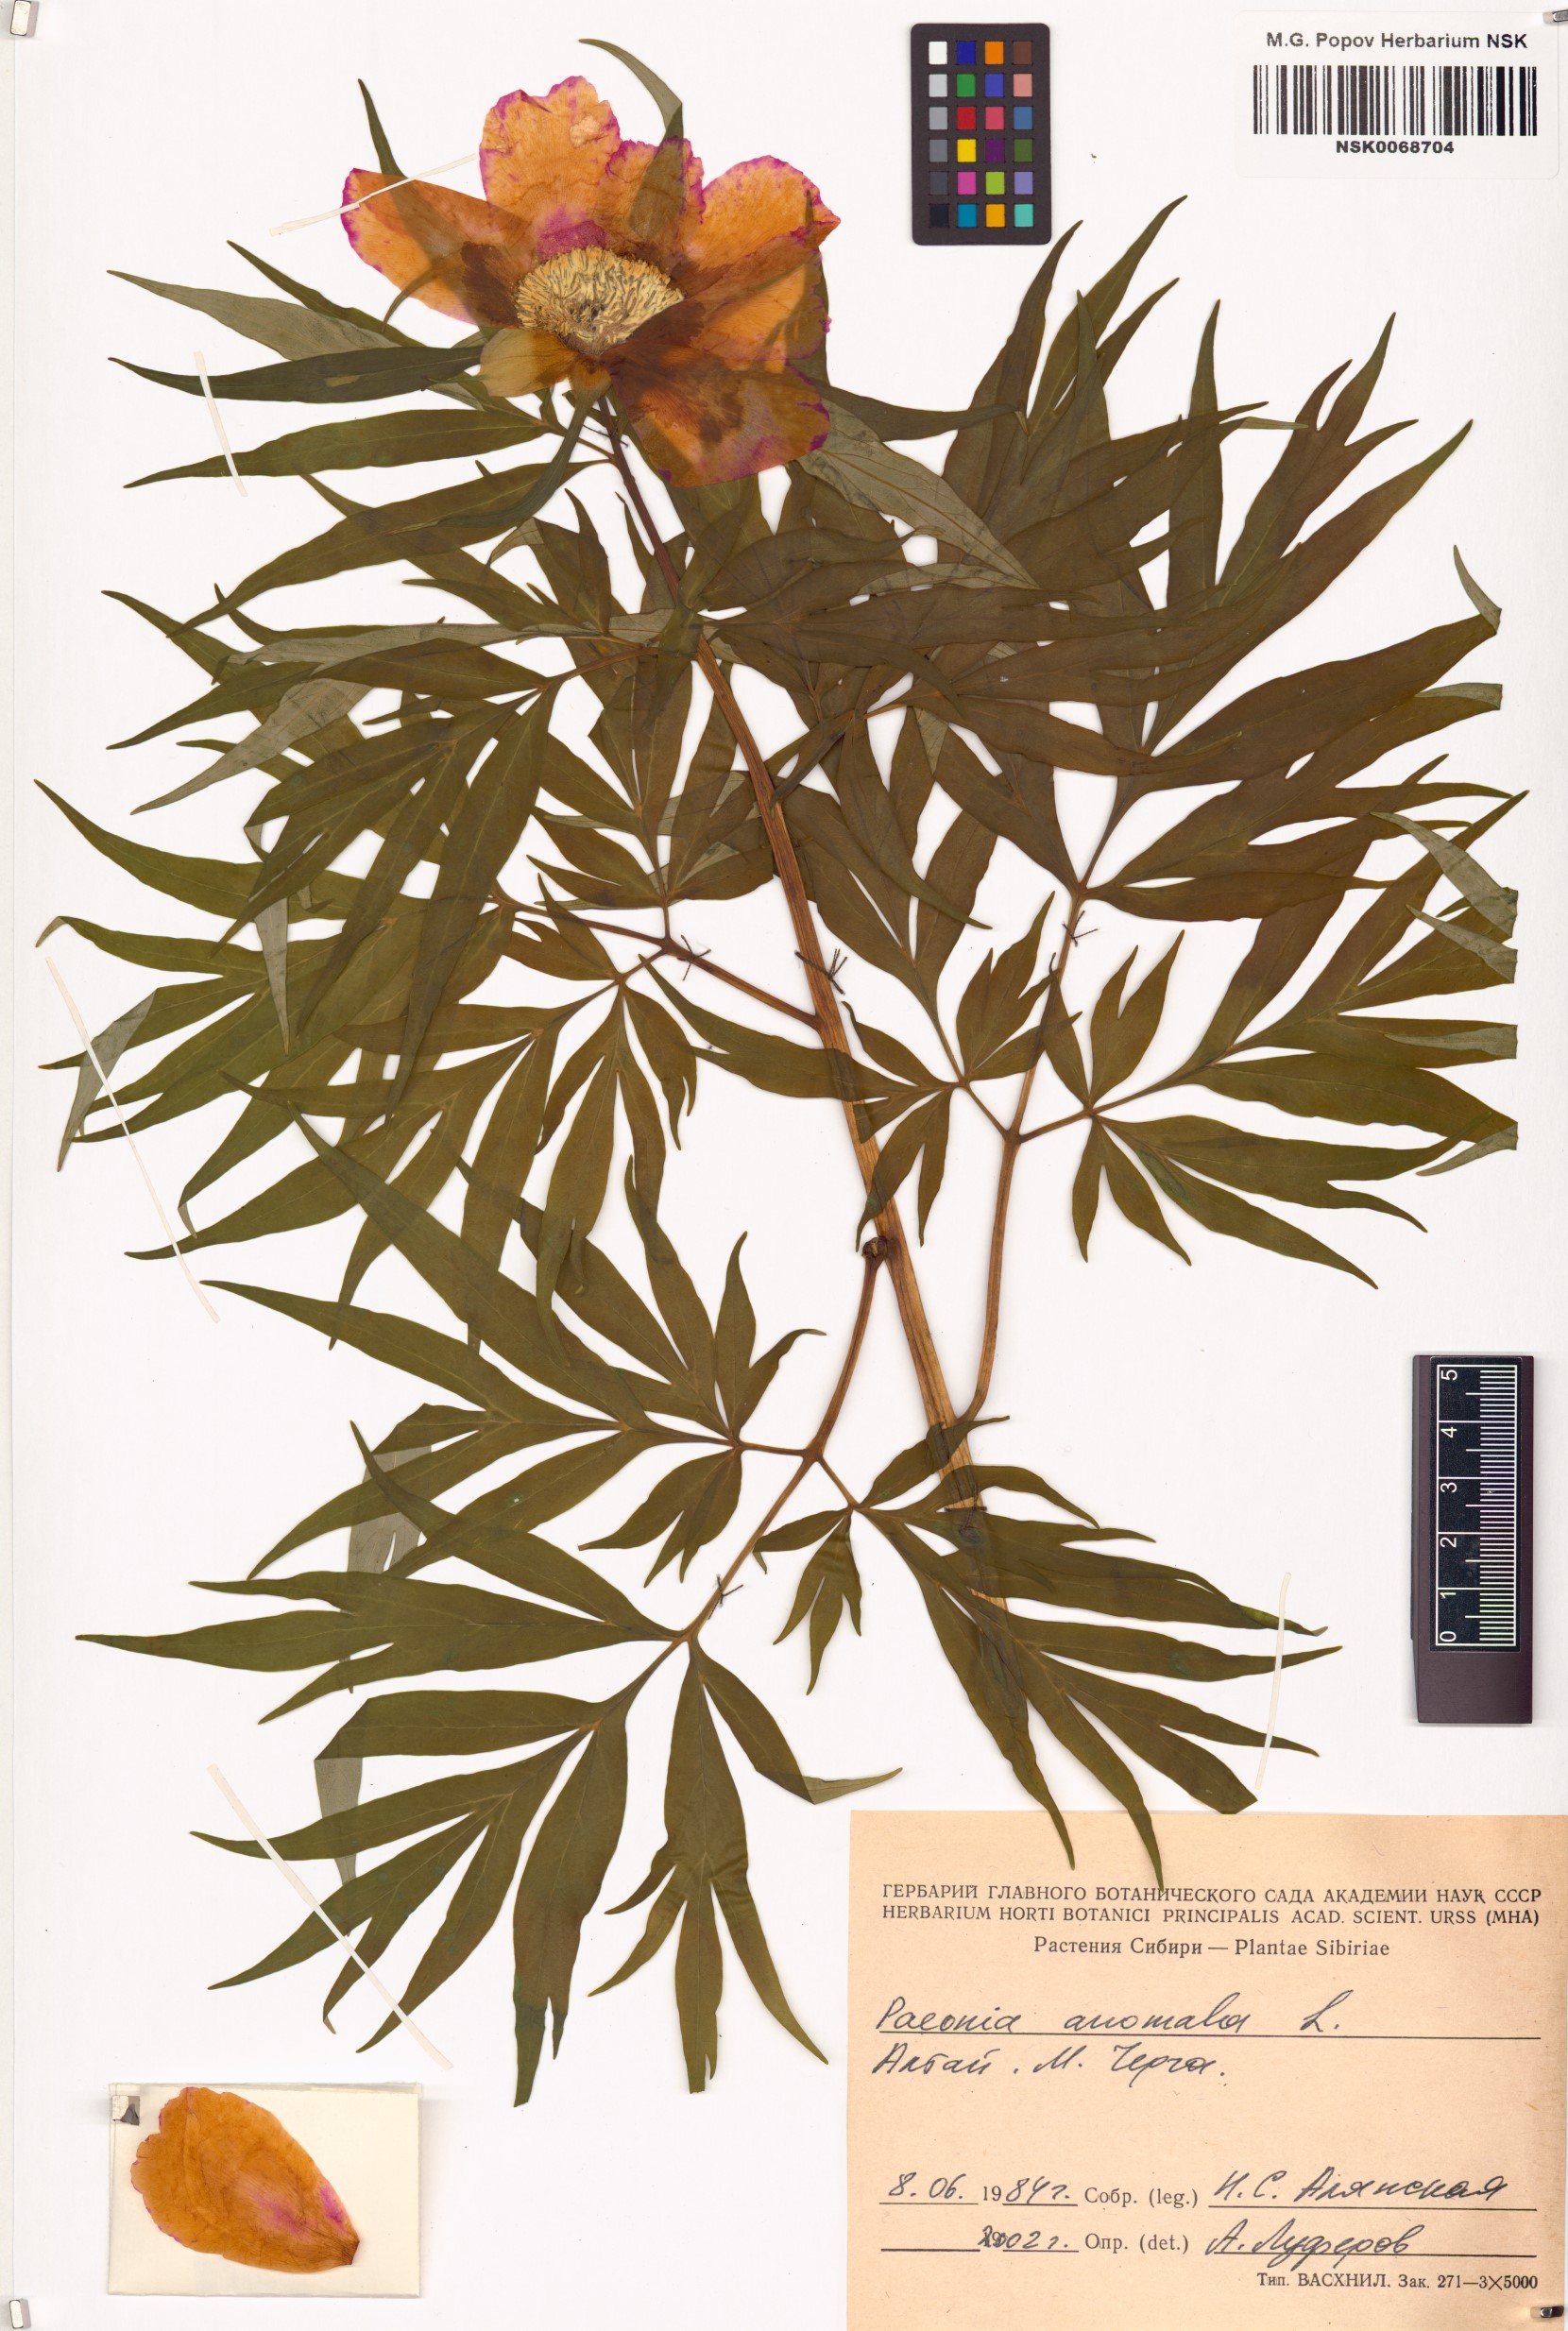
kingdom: Plantae
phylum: Tracheophyta
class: Magnoliopsida
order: Saxifragales
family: Paeoniaceae
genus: Paeonia
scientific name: Paeonia anomala
